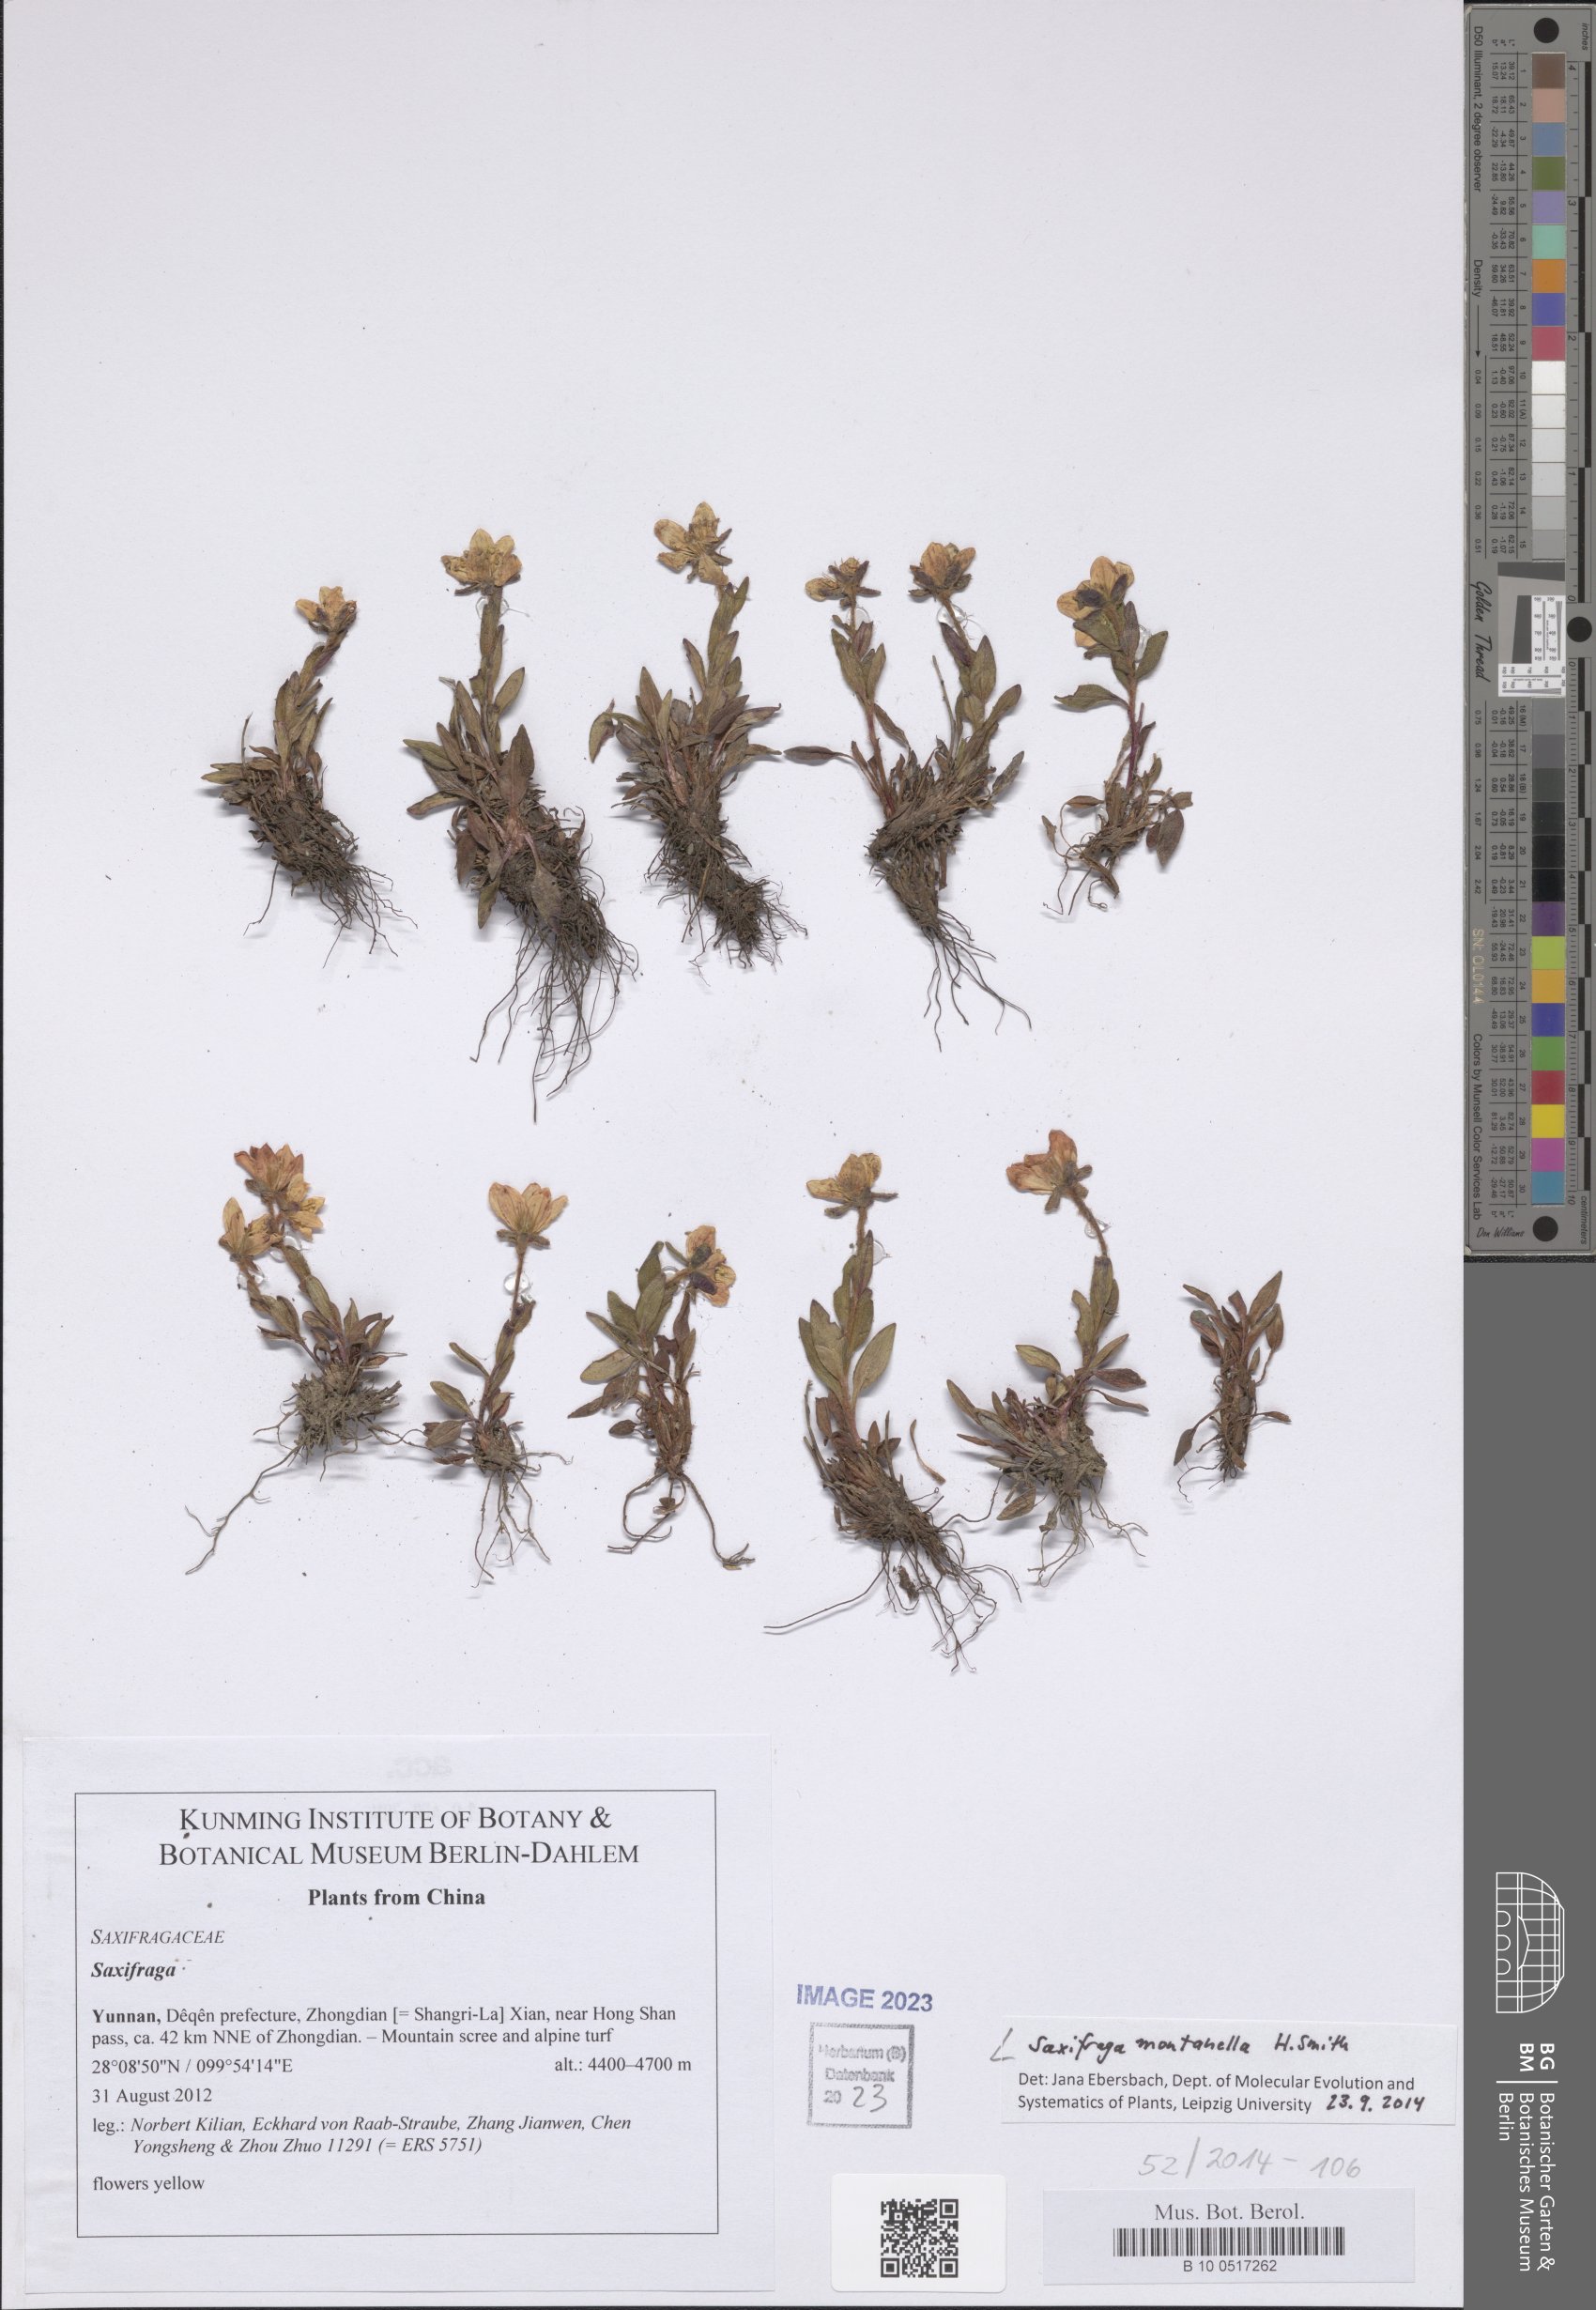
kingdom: Plantae
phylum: Tracheophyta
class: Magnoliopsida
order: Saxifragales
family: Saxifragaceae
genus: Saxifraga
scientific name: Saxifraga montanella
